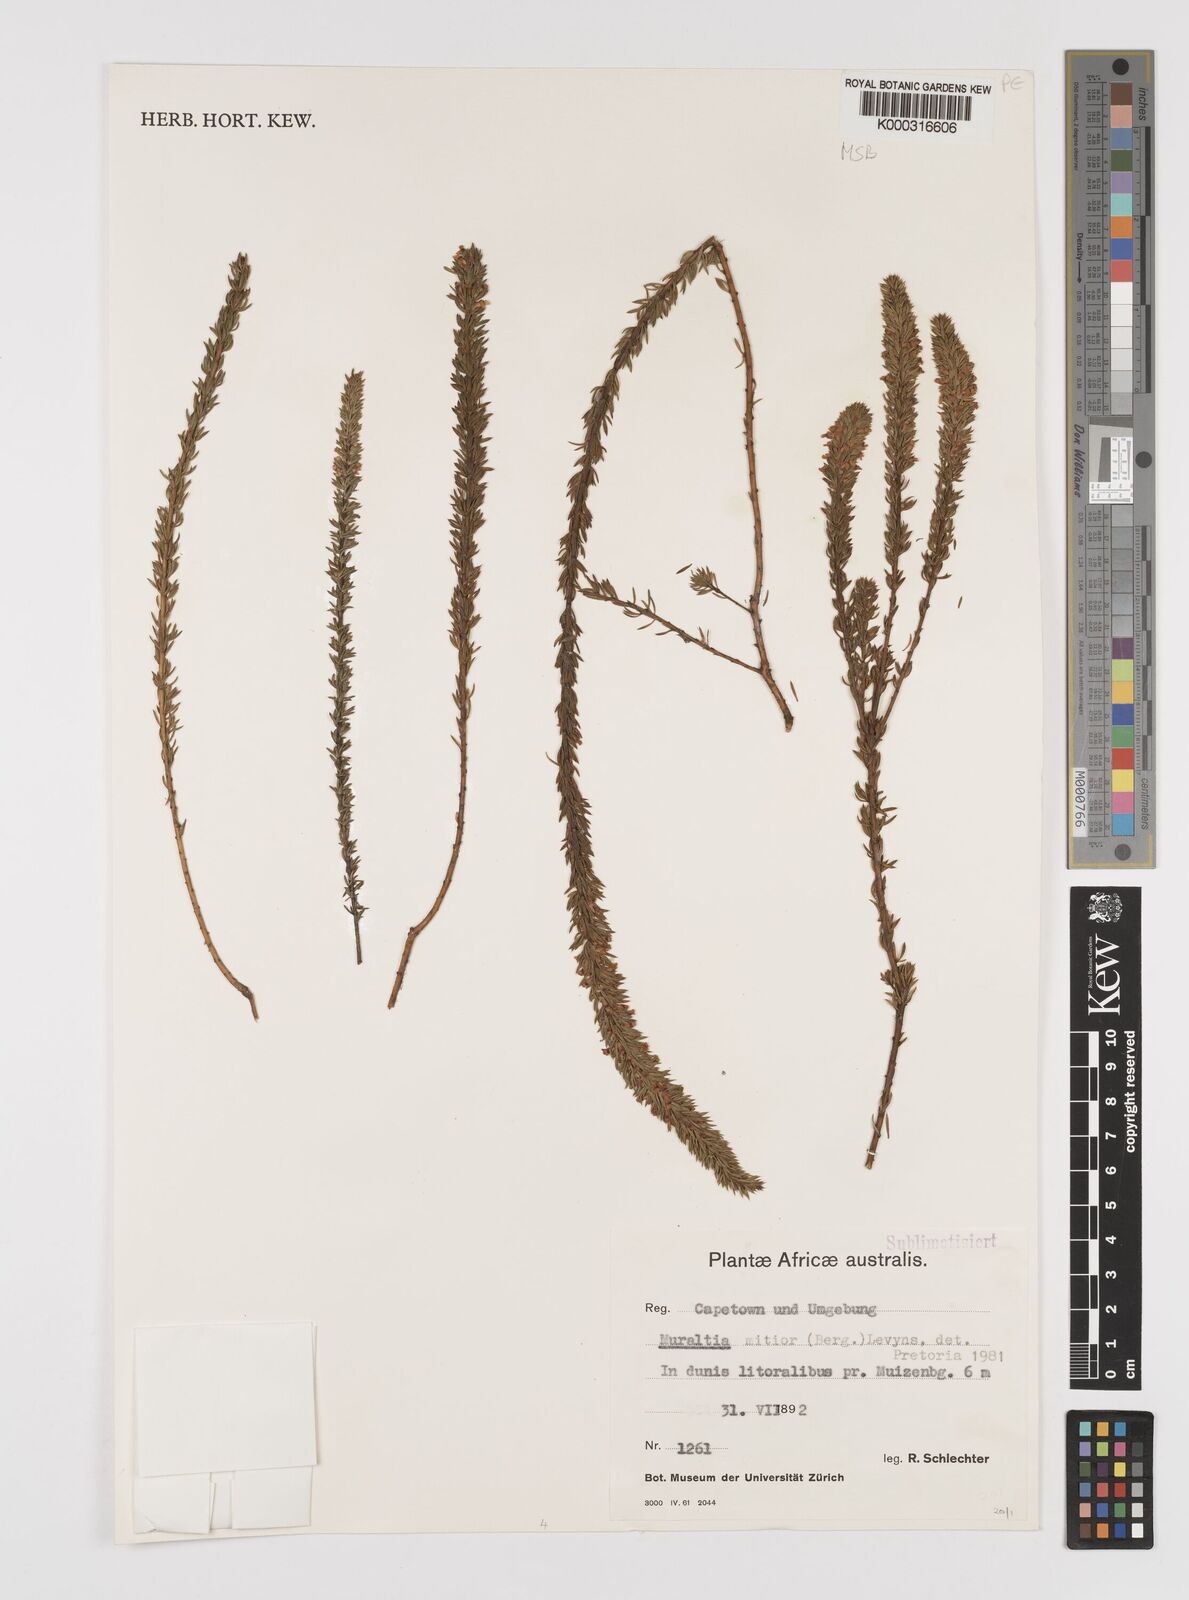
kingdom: Plantae
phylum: Tracheophyta
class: Magnoliopsida
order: Fabales
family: Polygalaceae
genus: Muraltia
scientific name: Muraltia
